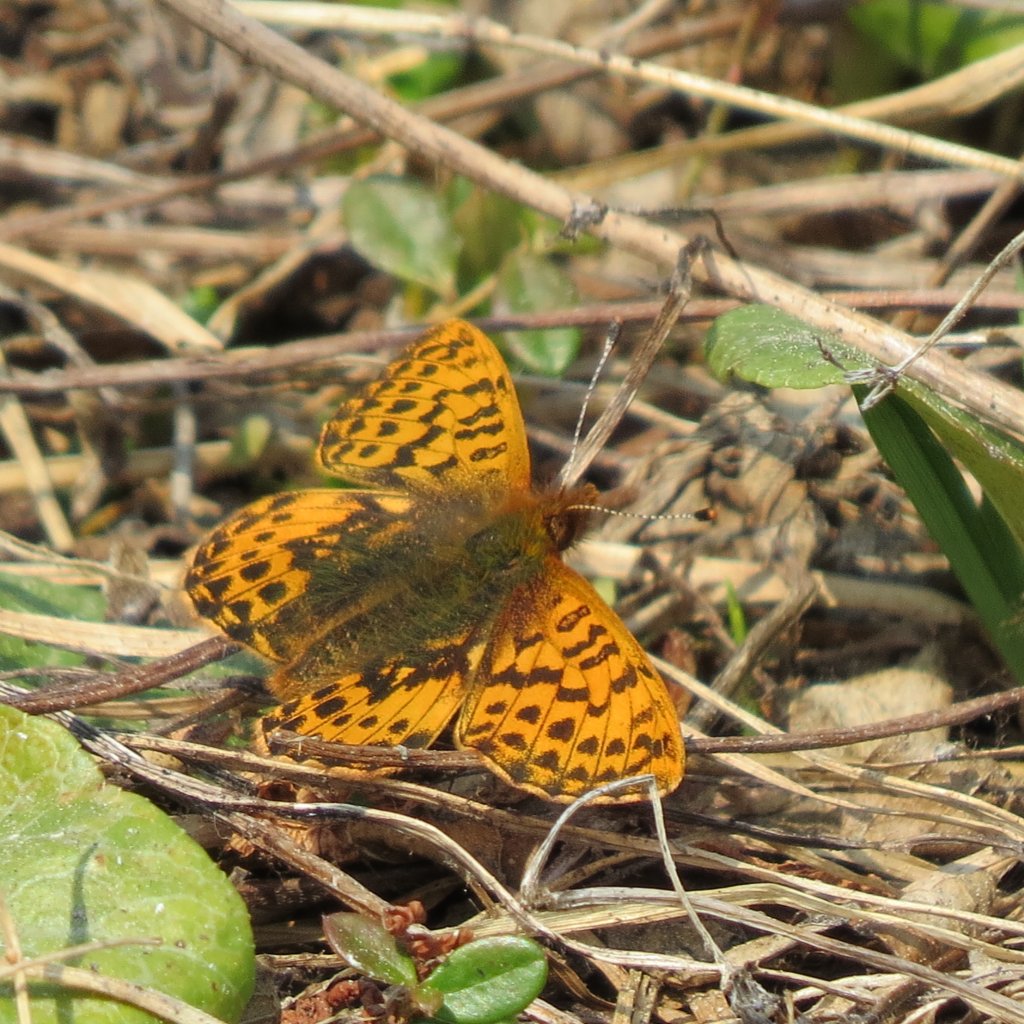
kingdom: Animalia
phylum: Arthropoda
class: Insecta
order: Lepidoptera
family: Nymphalidae
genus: Speyeria
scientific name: Speyeria mormonia
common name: Mormon Fritillary
